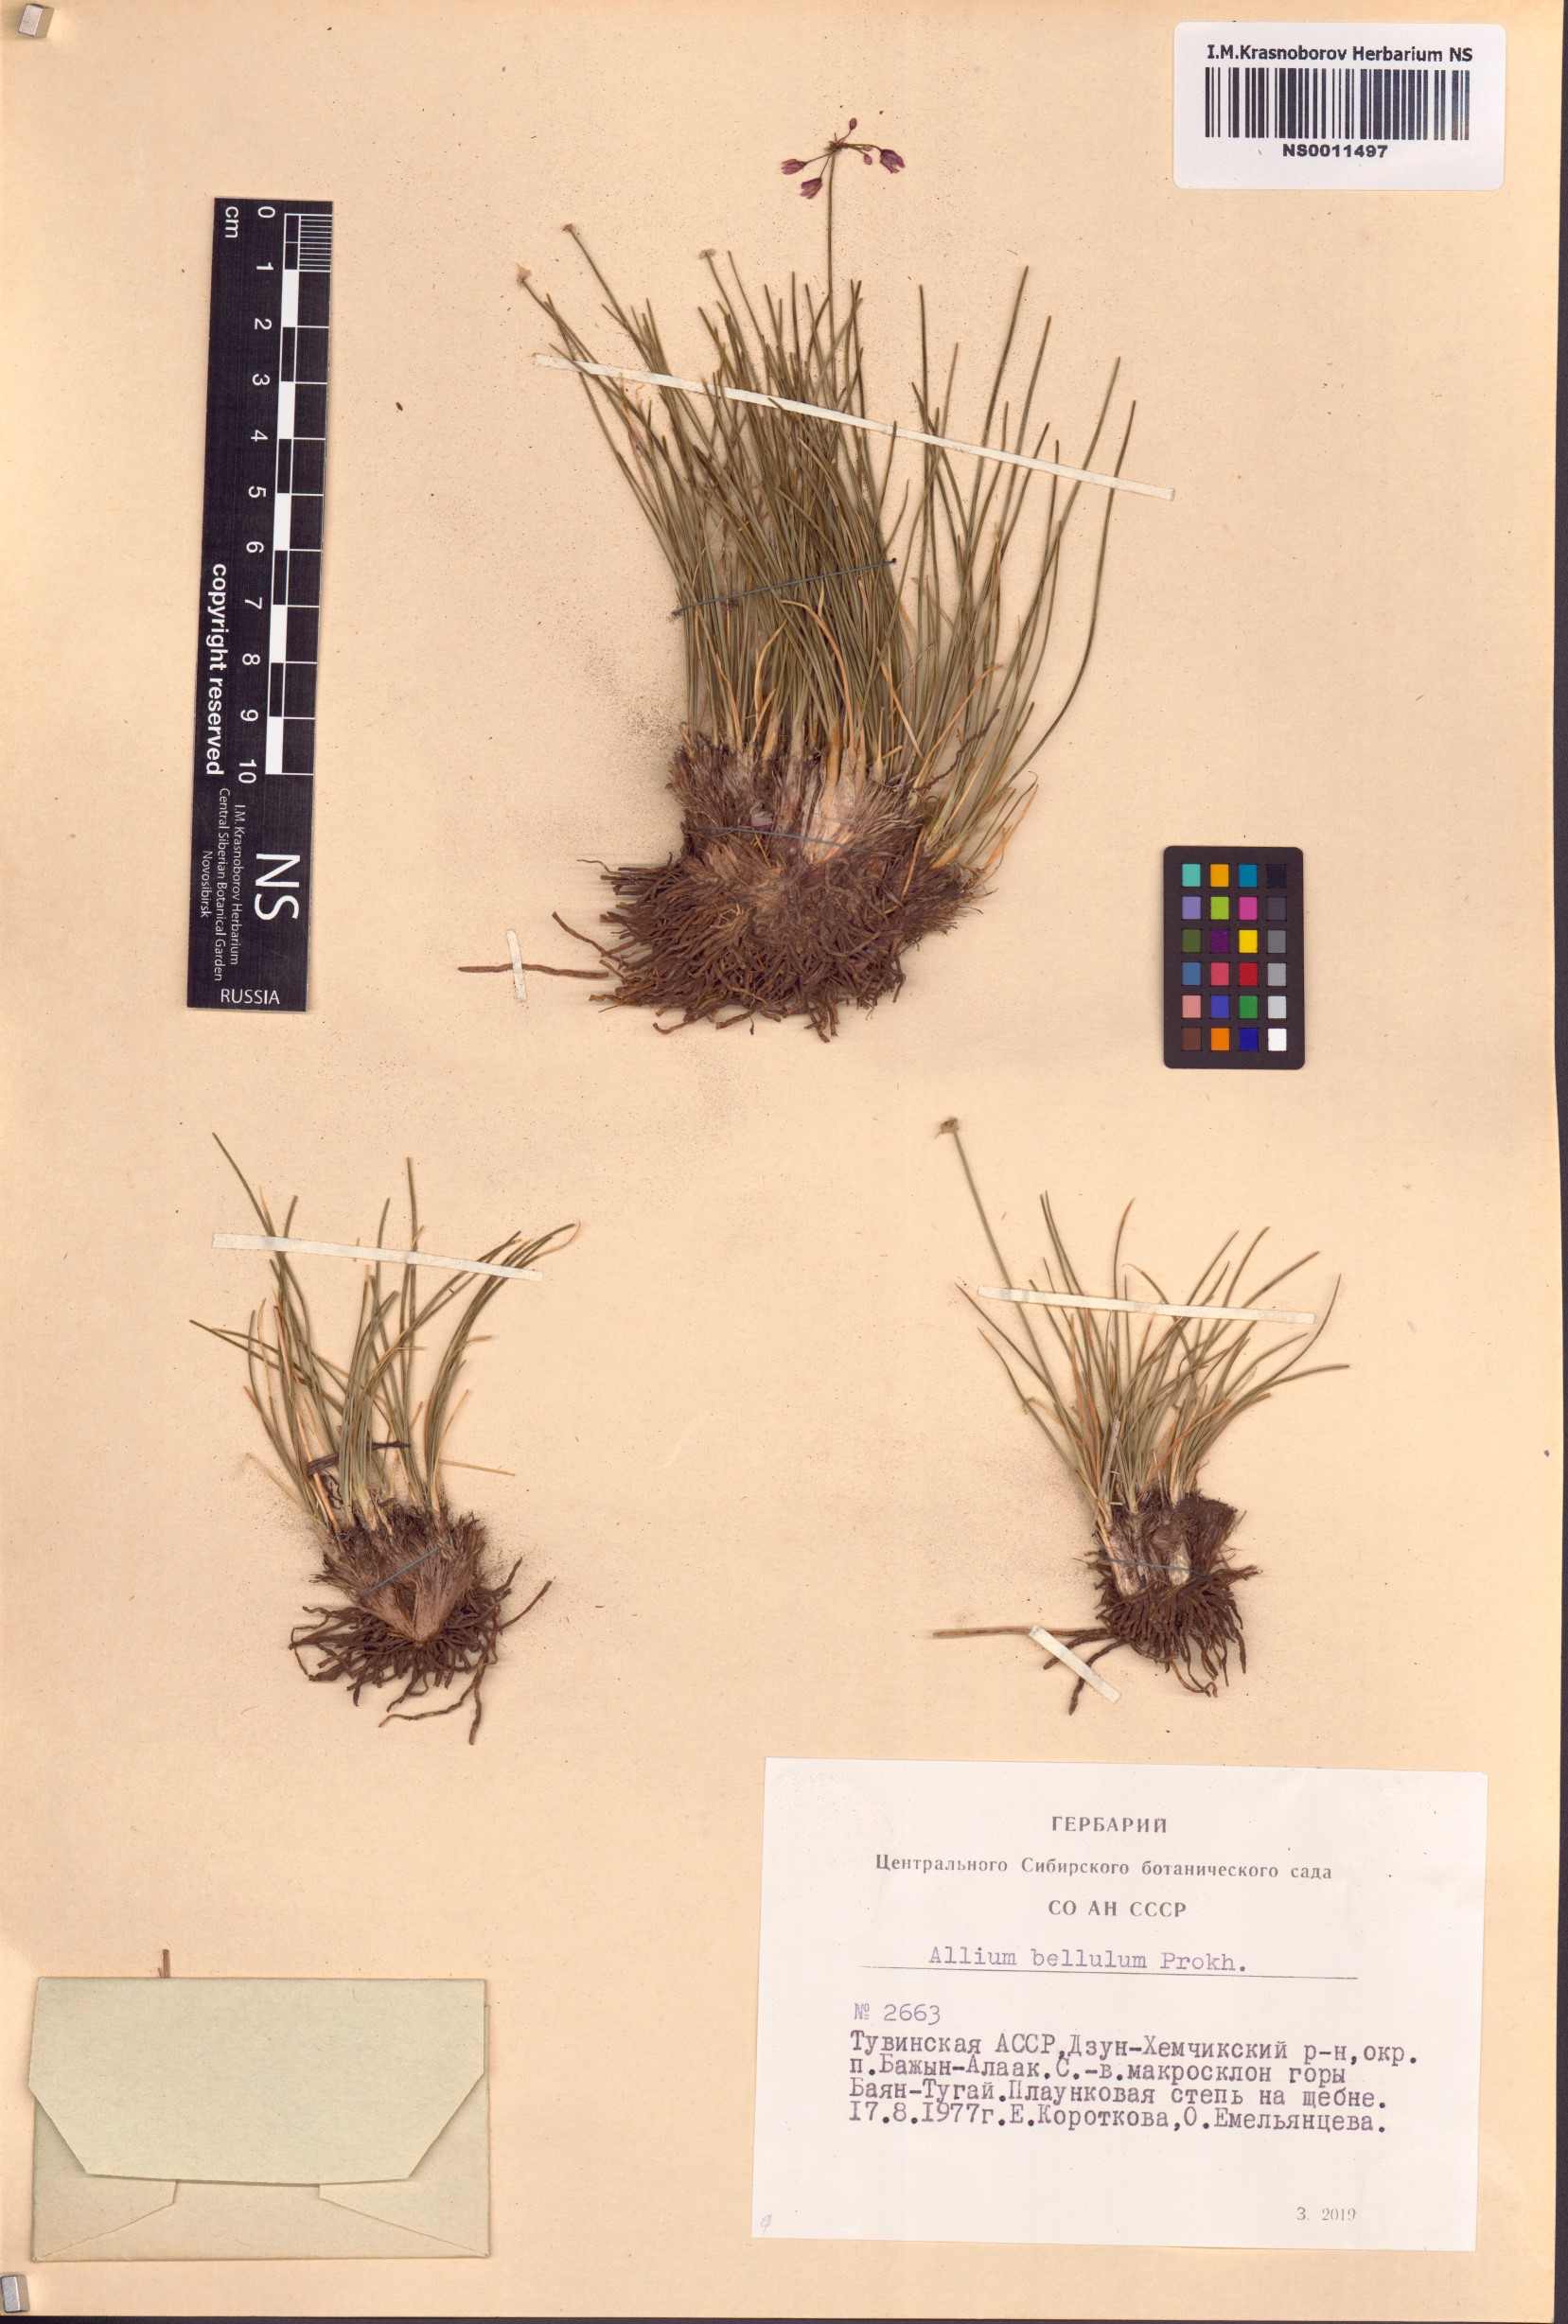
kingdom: Plantae
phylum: Tracheophyta
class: Liliopsida
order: Asparagales
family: Amaryllidaceae
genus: Allium
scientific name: Allium bellulum
